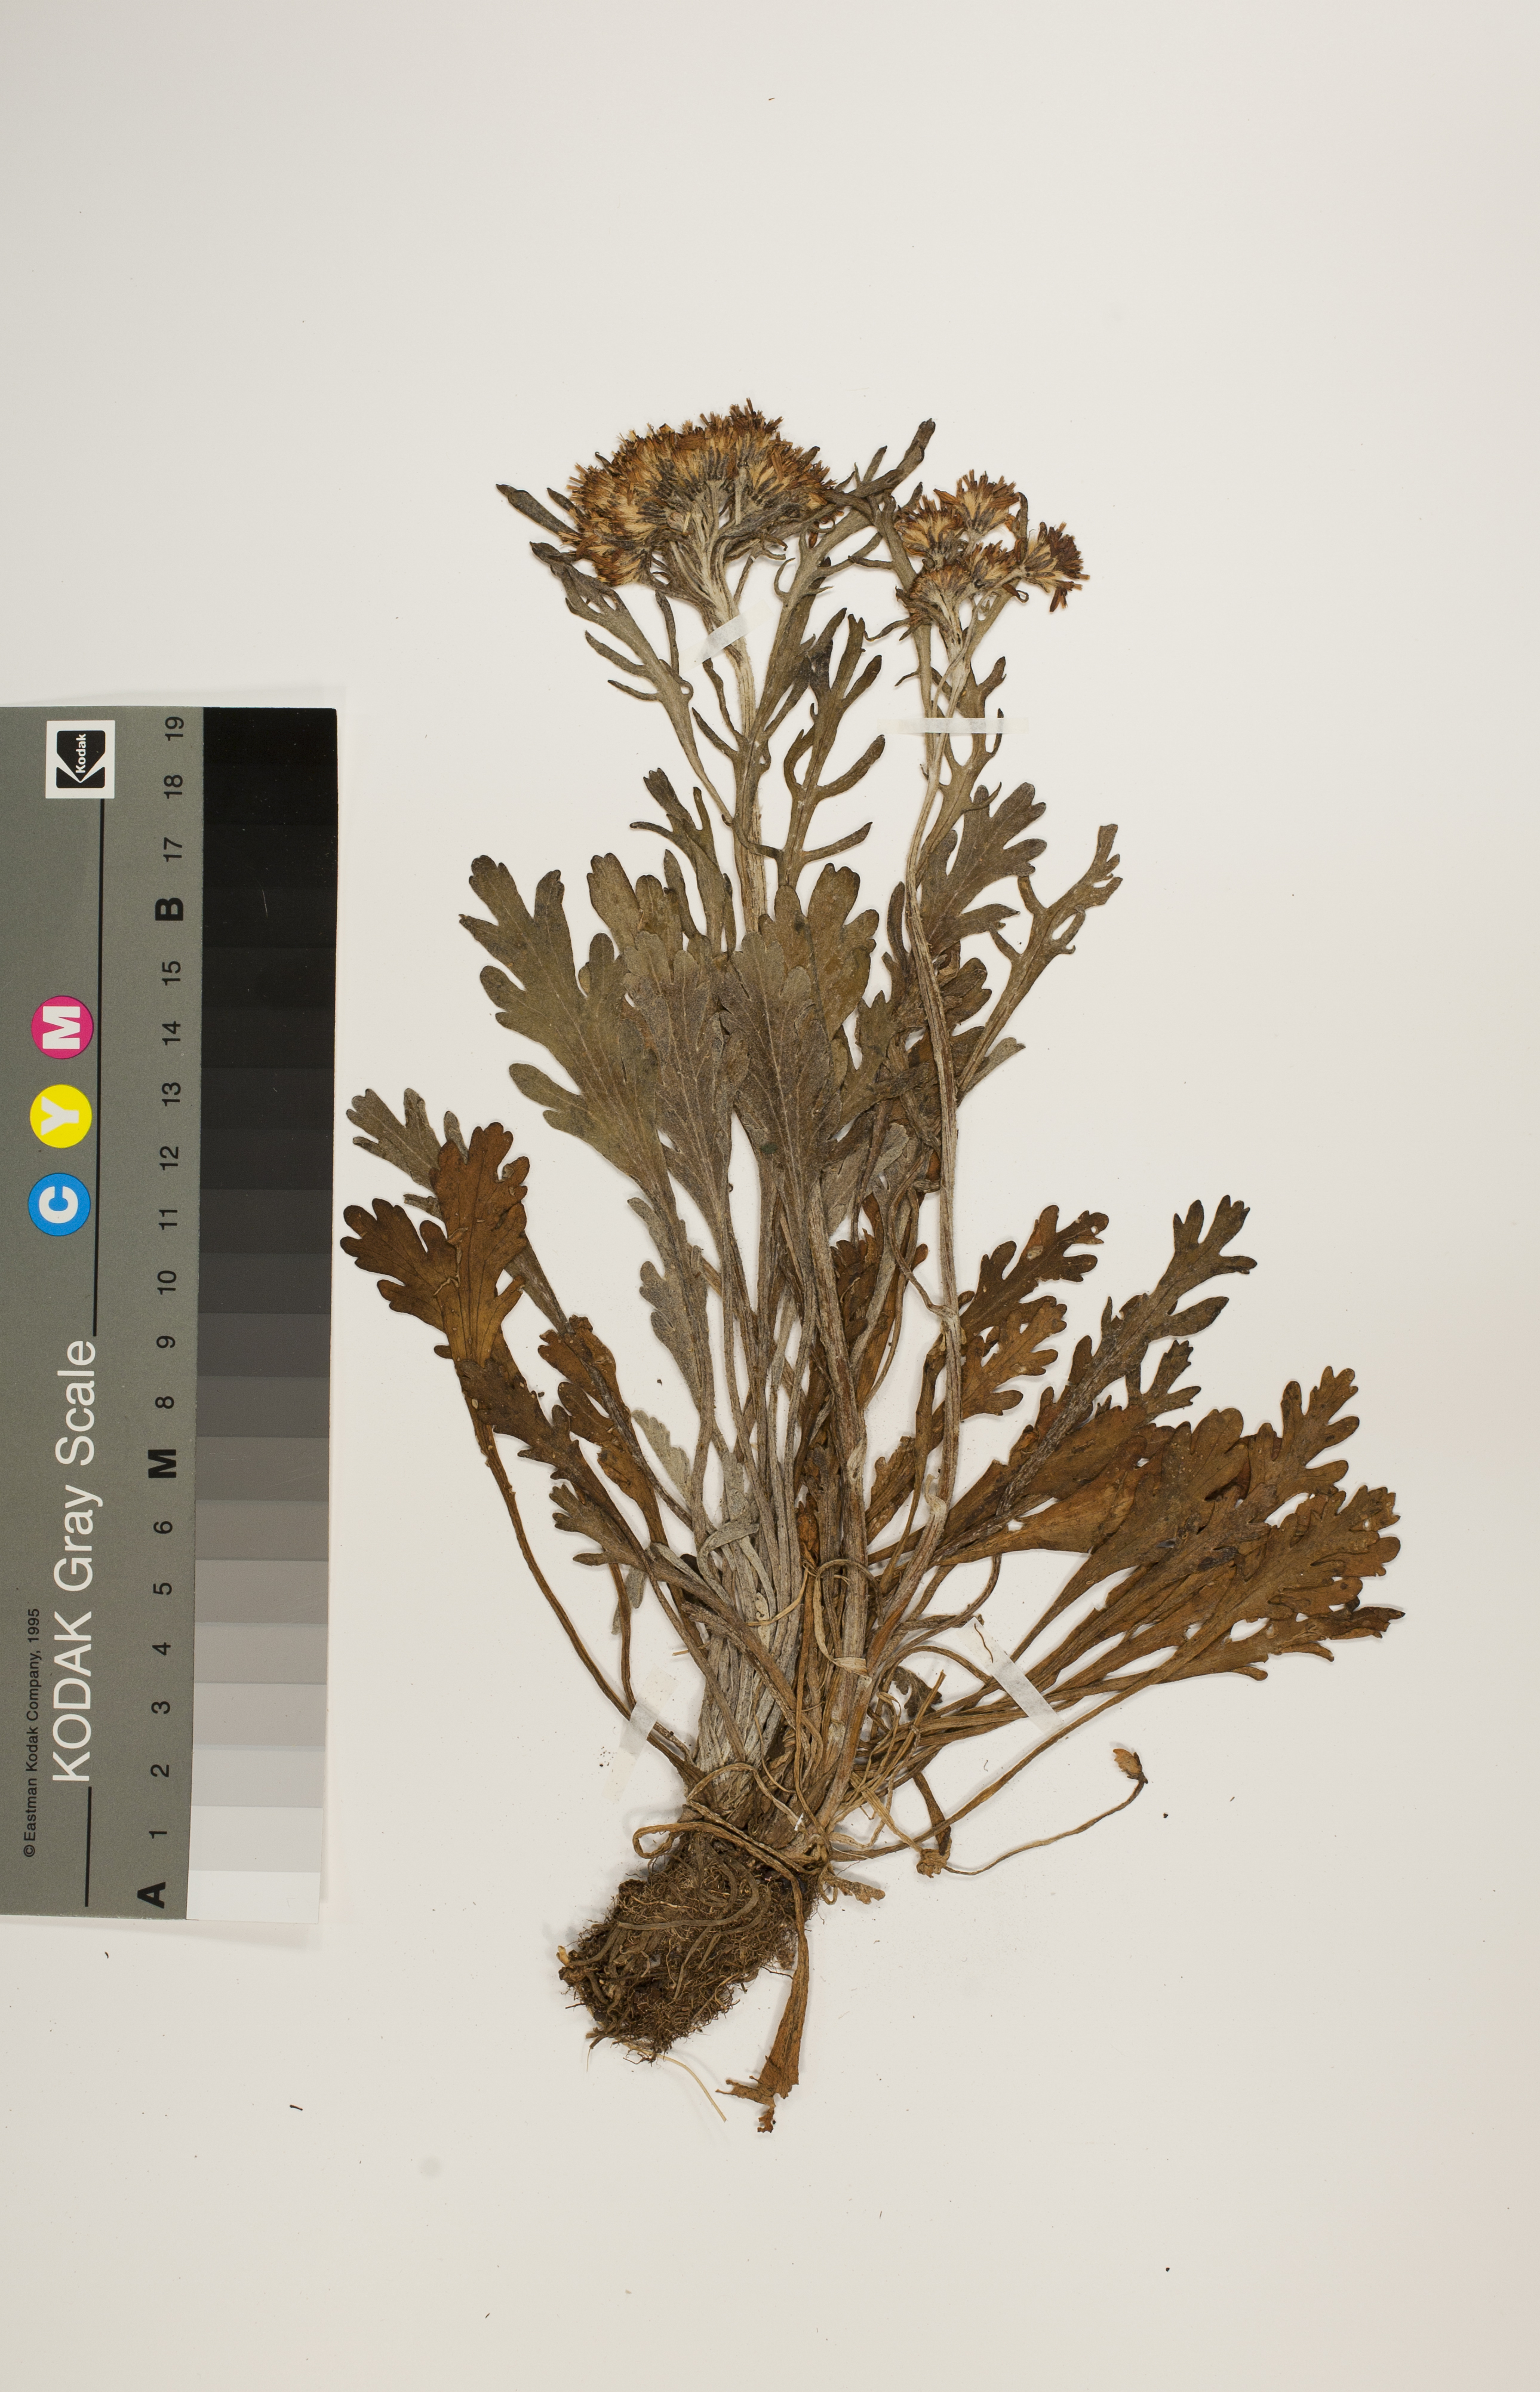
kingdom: Plantae
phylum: Tracheophyta
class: Magnoliopsida
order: Asterales
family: Asteraceae
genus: Jacobaea
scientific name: Jacobaea carniolica
